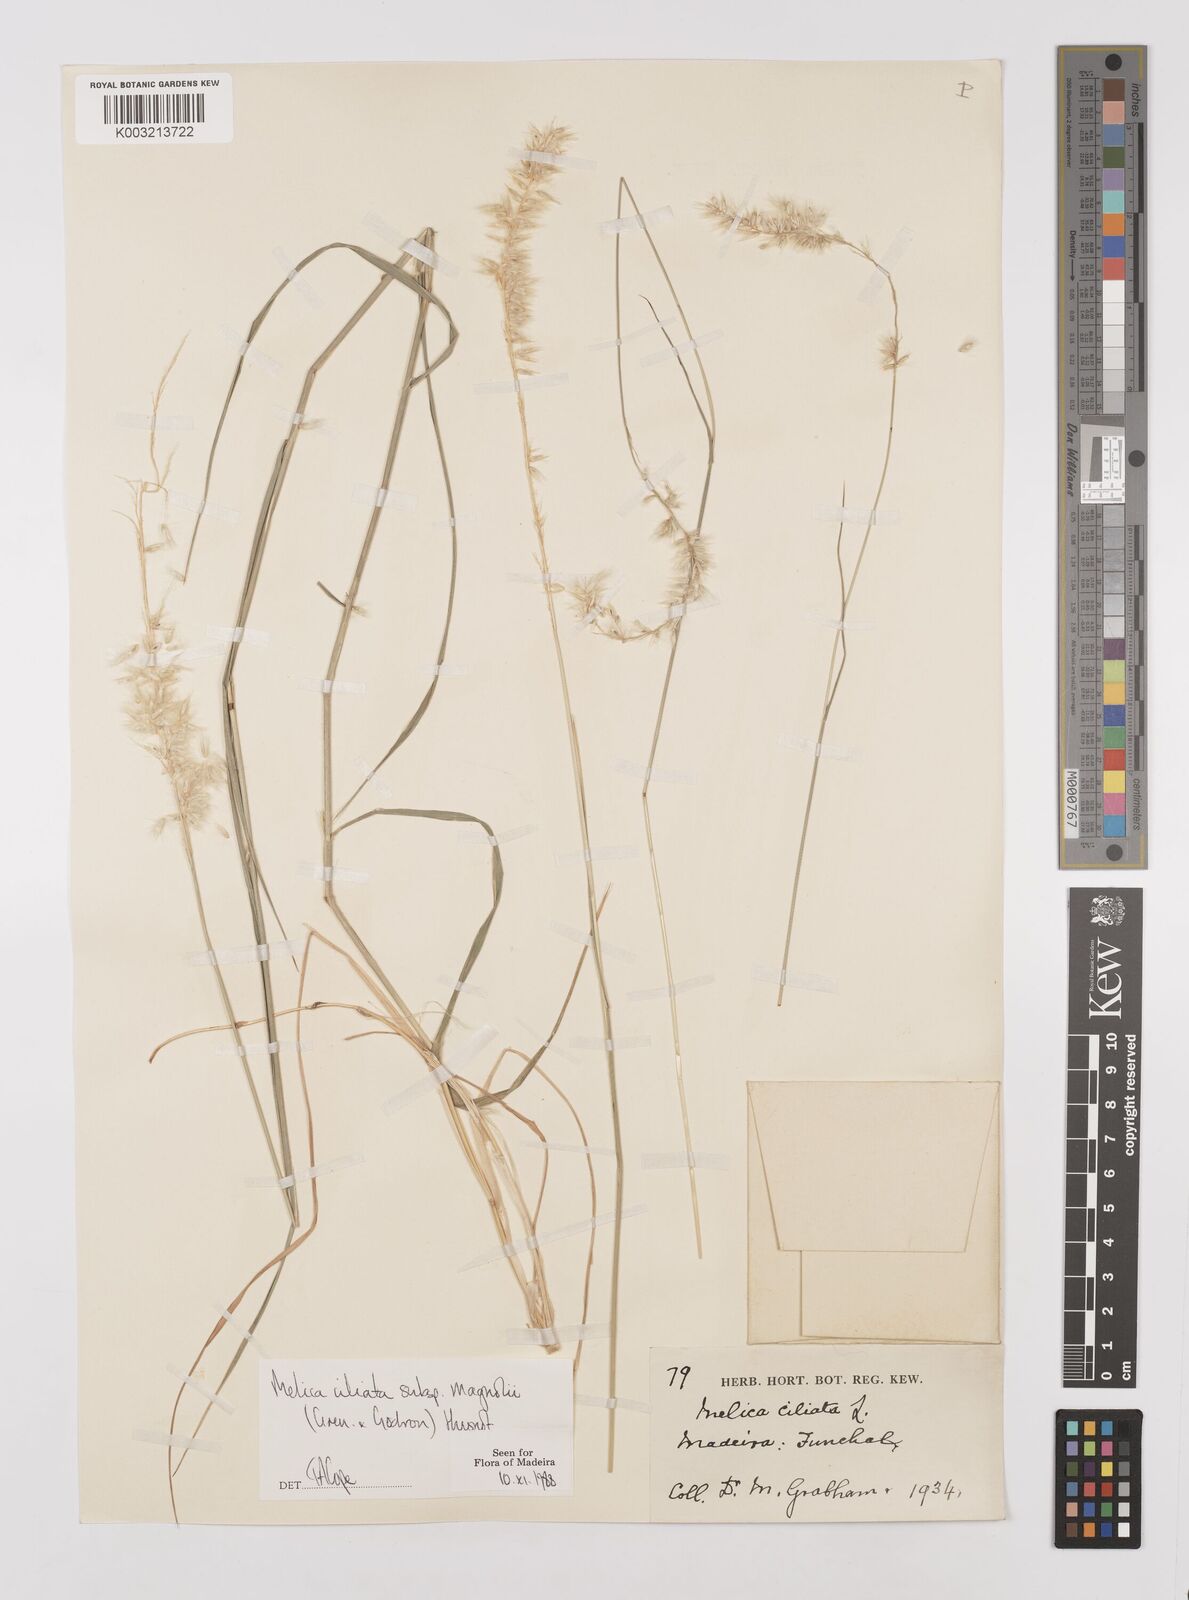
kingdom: Plantae
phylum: Tracheophyta
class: Liliopsida
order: Poales
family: Poaceae
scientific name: Poaceae
